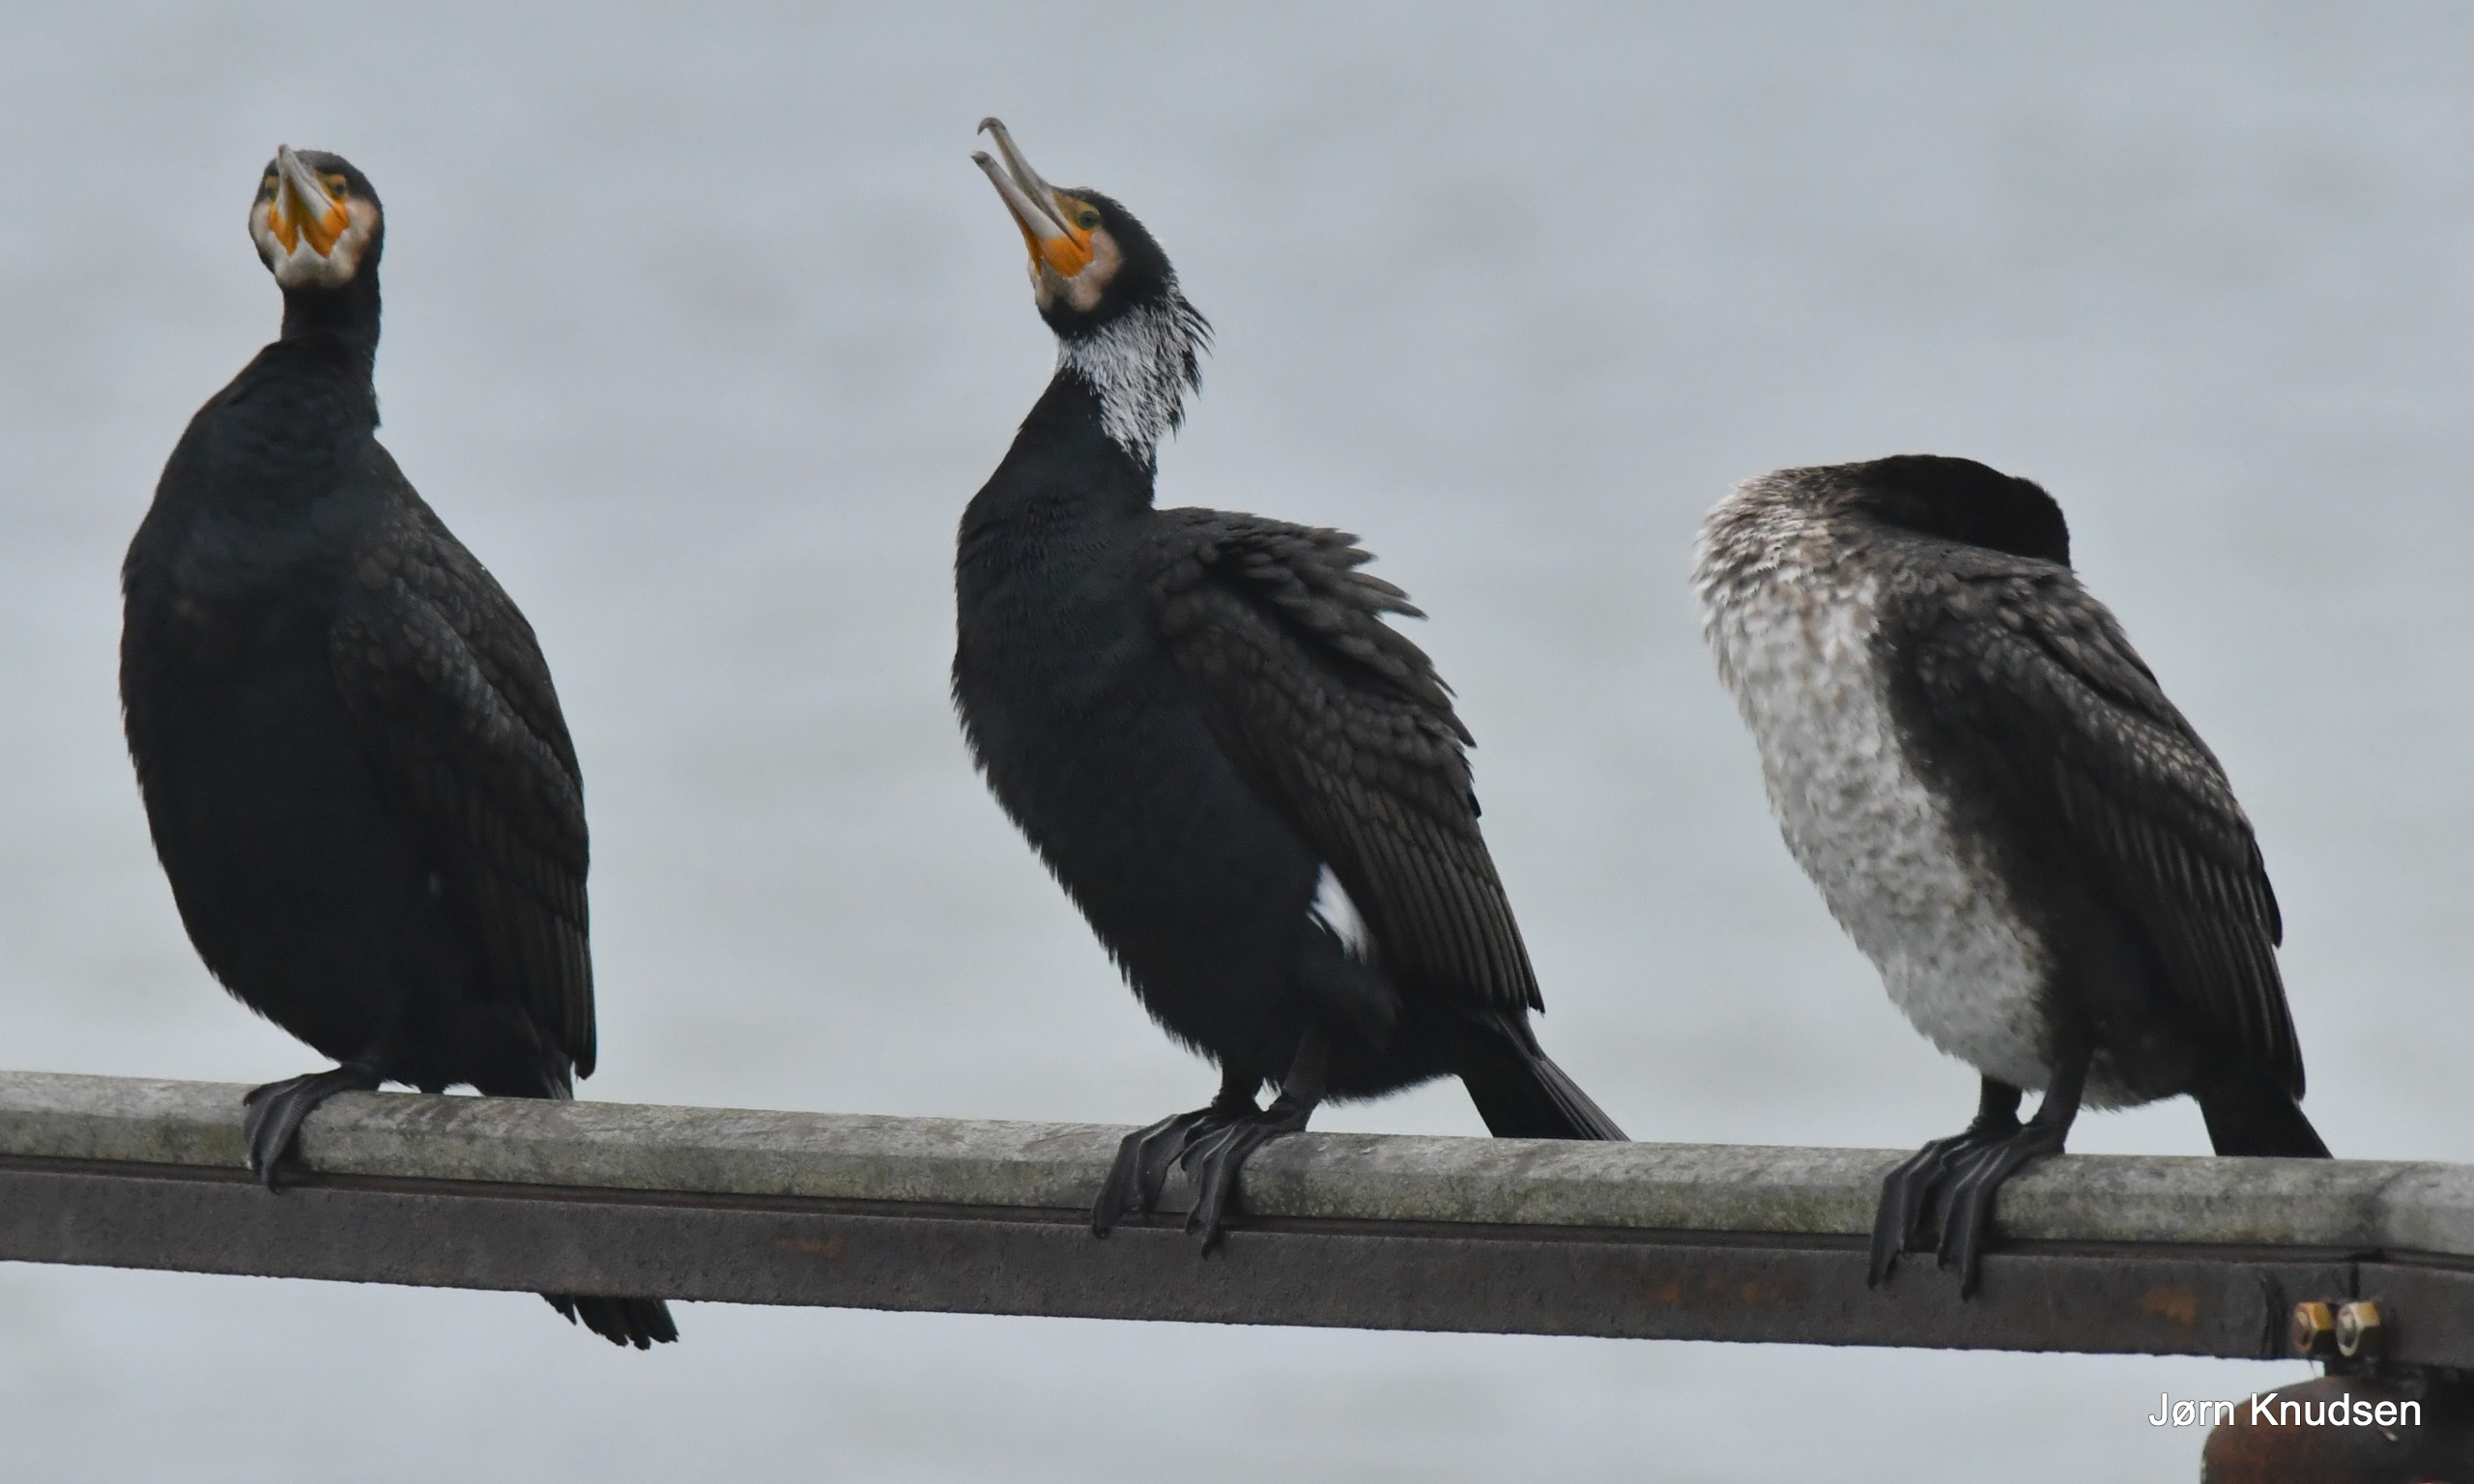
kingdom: Animalia
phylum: Chordata
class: Aves
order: Suliformes
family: Phalacrocoracidae
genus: Phalacrocorax
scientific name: Phalacrocorax carbo
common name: Mellemskarv
